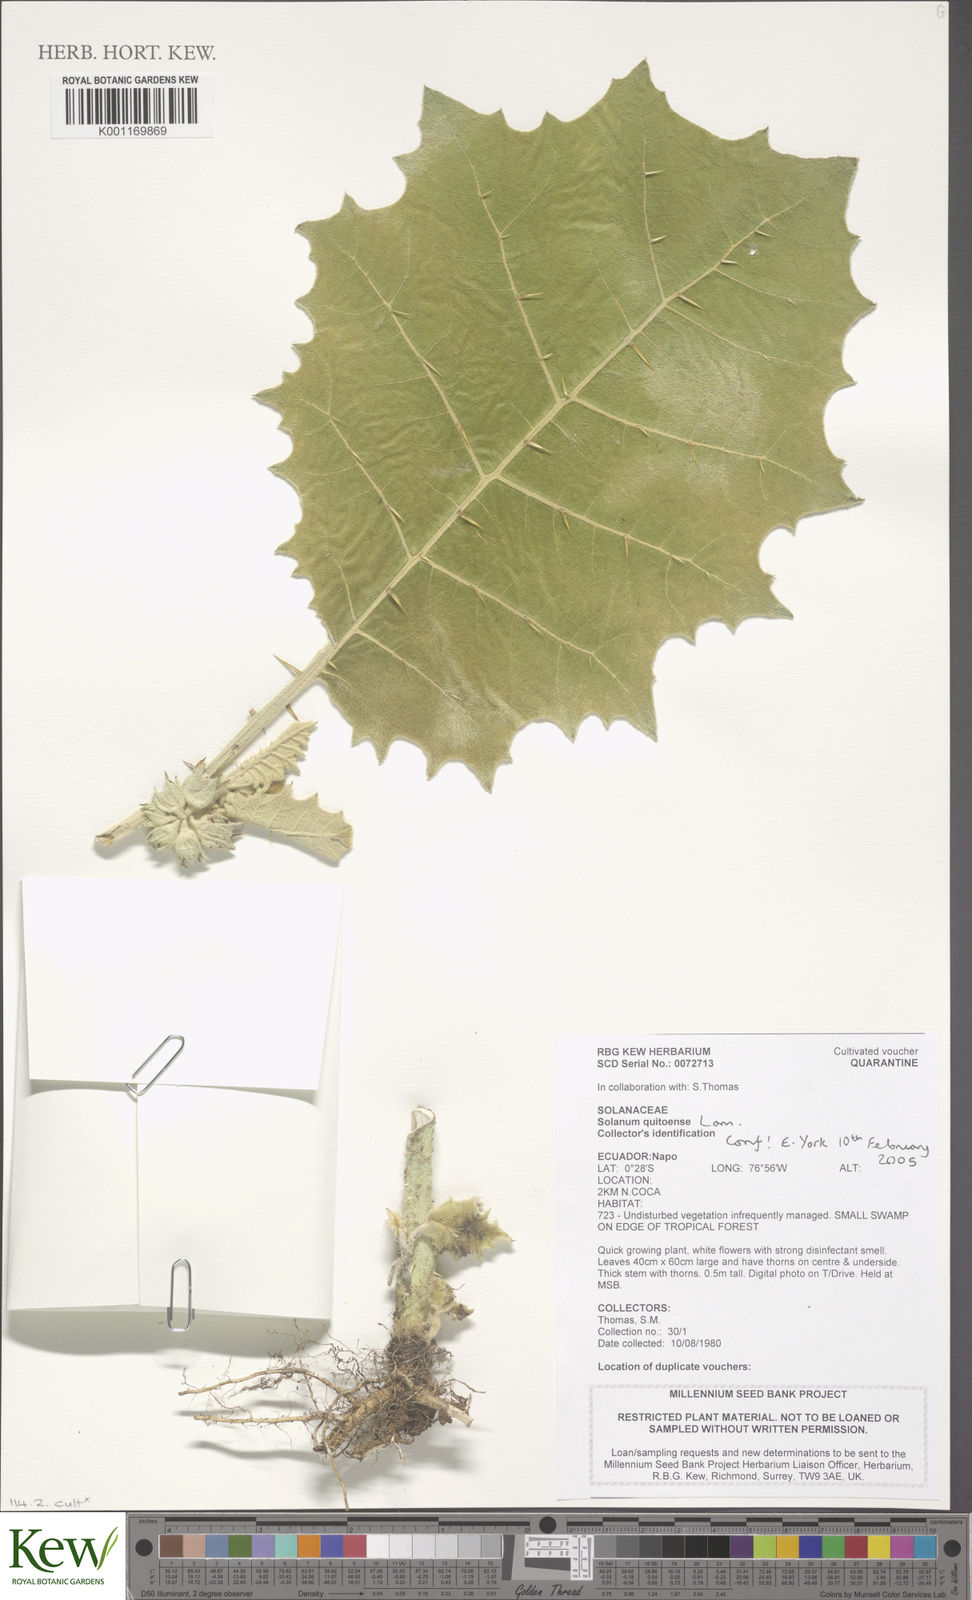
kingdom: Plantae
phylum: Tracheophyta
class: Magnoliopsida
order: Solanales
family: Solanaceae
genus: Solanum
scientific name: Solanum quitoense
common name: Quito-orange
